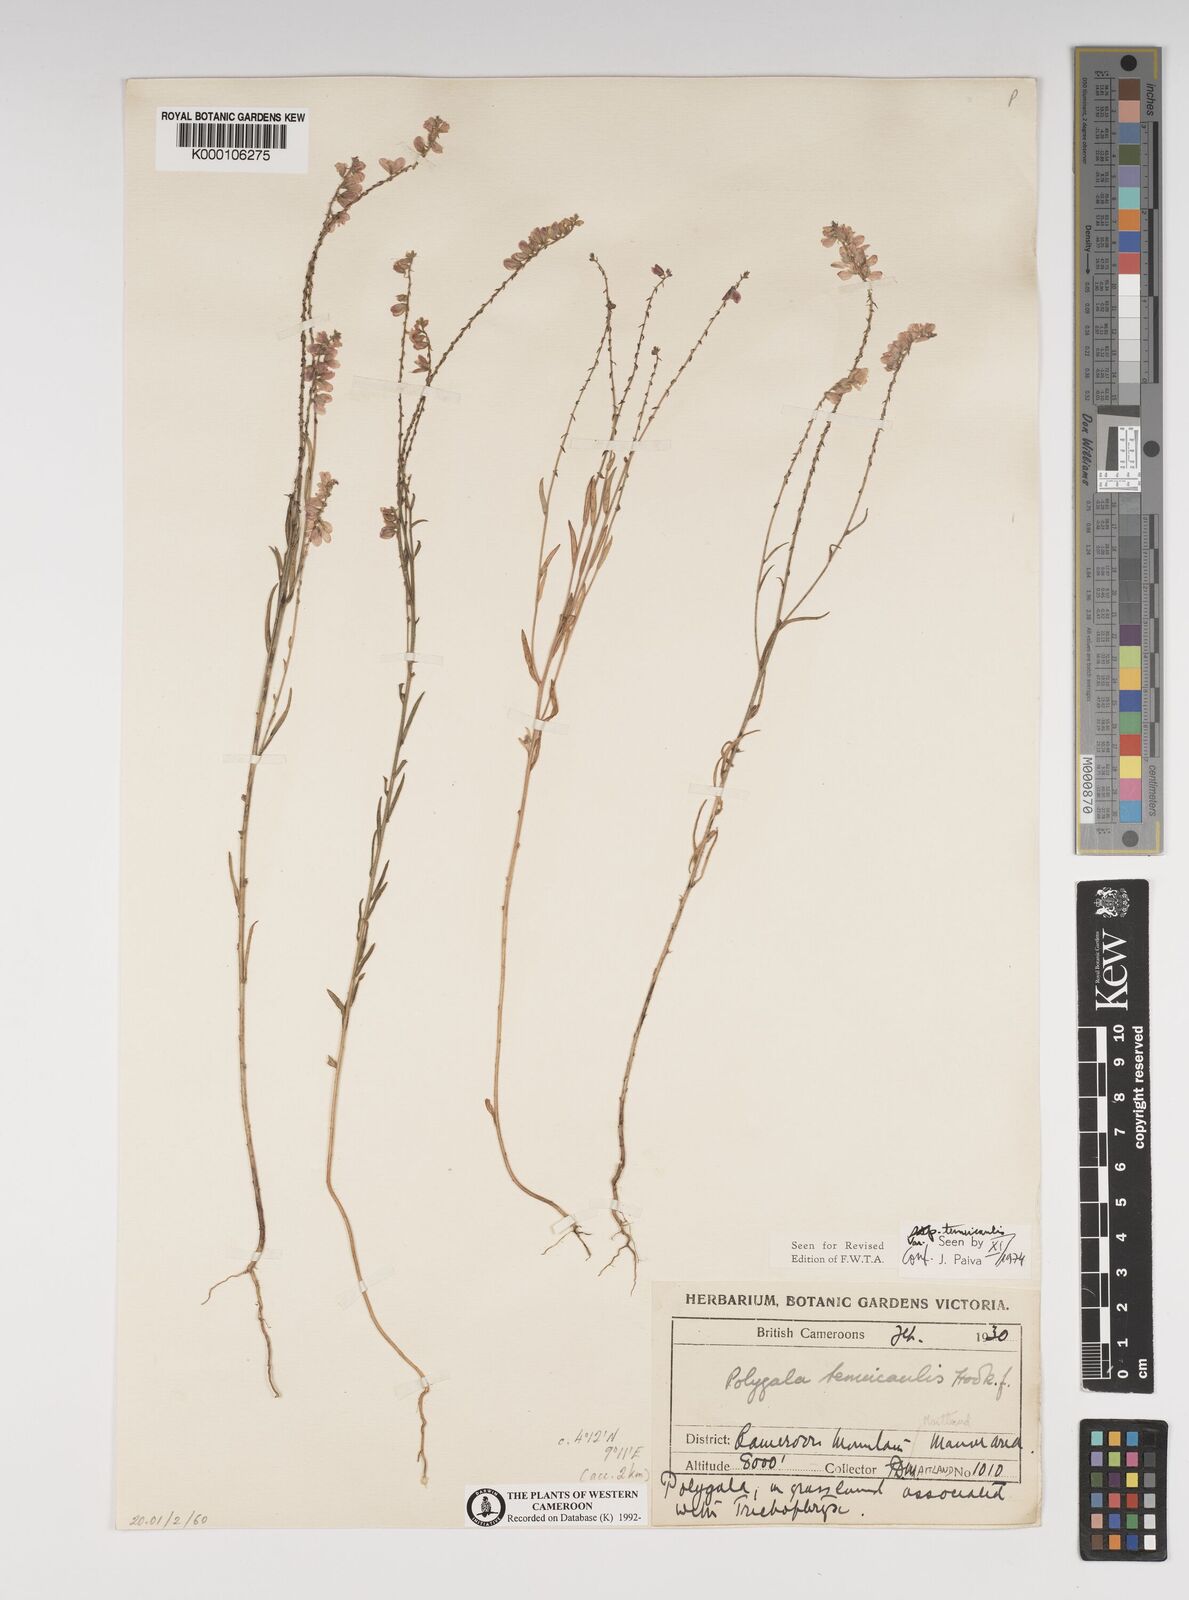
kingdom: Plantae
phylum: Tracheophyta
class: Magnoliopsida
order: Fabales
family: Polygalaceae
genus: Polygala
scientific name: Polygala tenuicaulis
